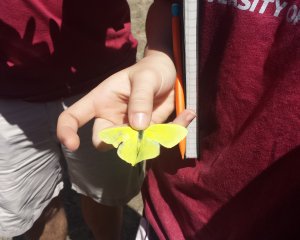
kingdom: Animalia
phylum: Arthropoda
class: Insecta
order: Lepidoptera
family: Pieridae
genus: Phoebis
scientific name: Phoebis sennae
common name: Cloudless Sulphur
